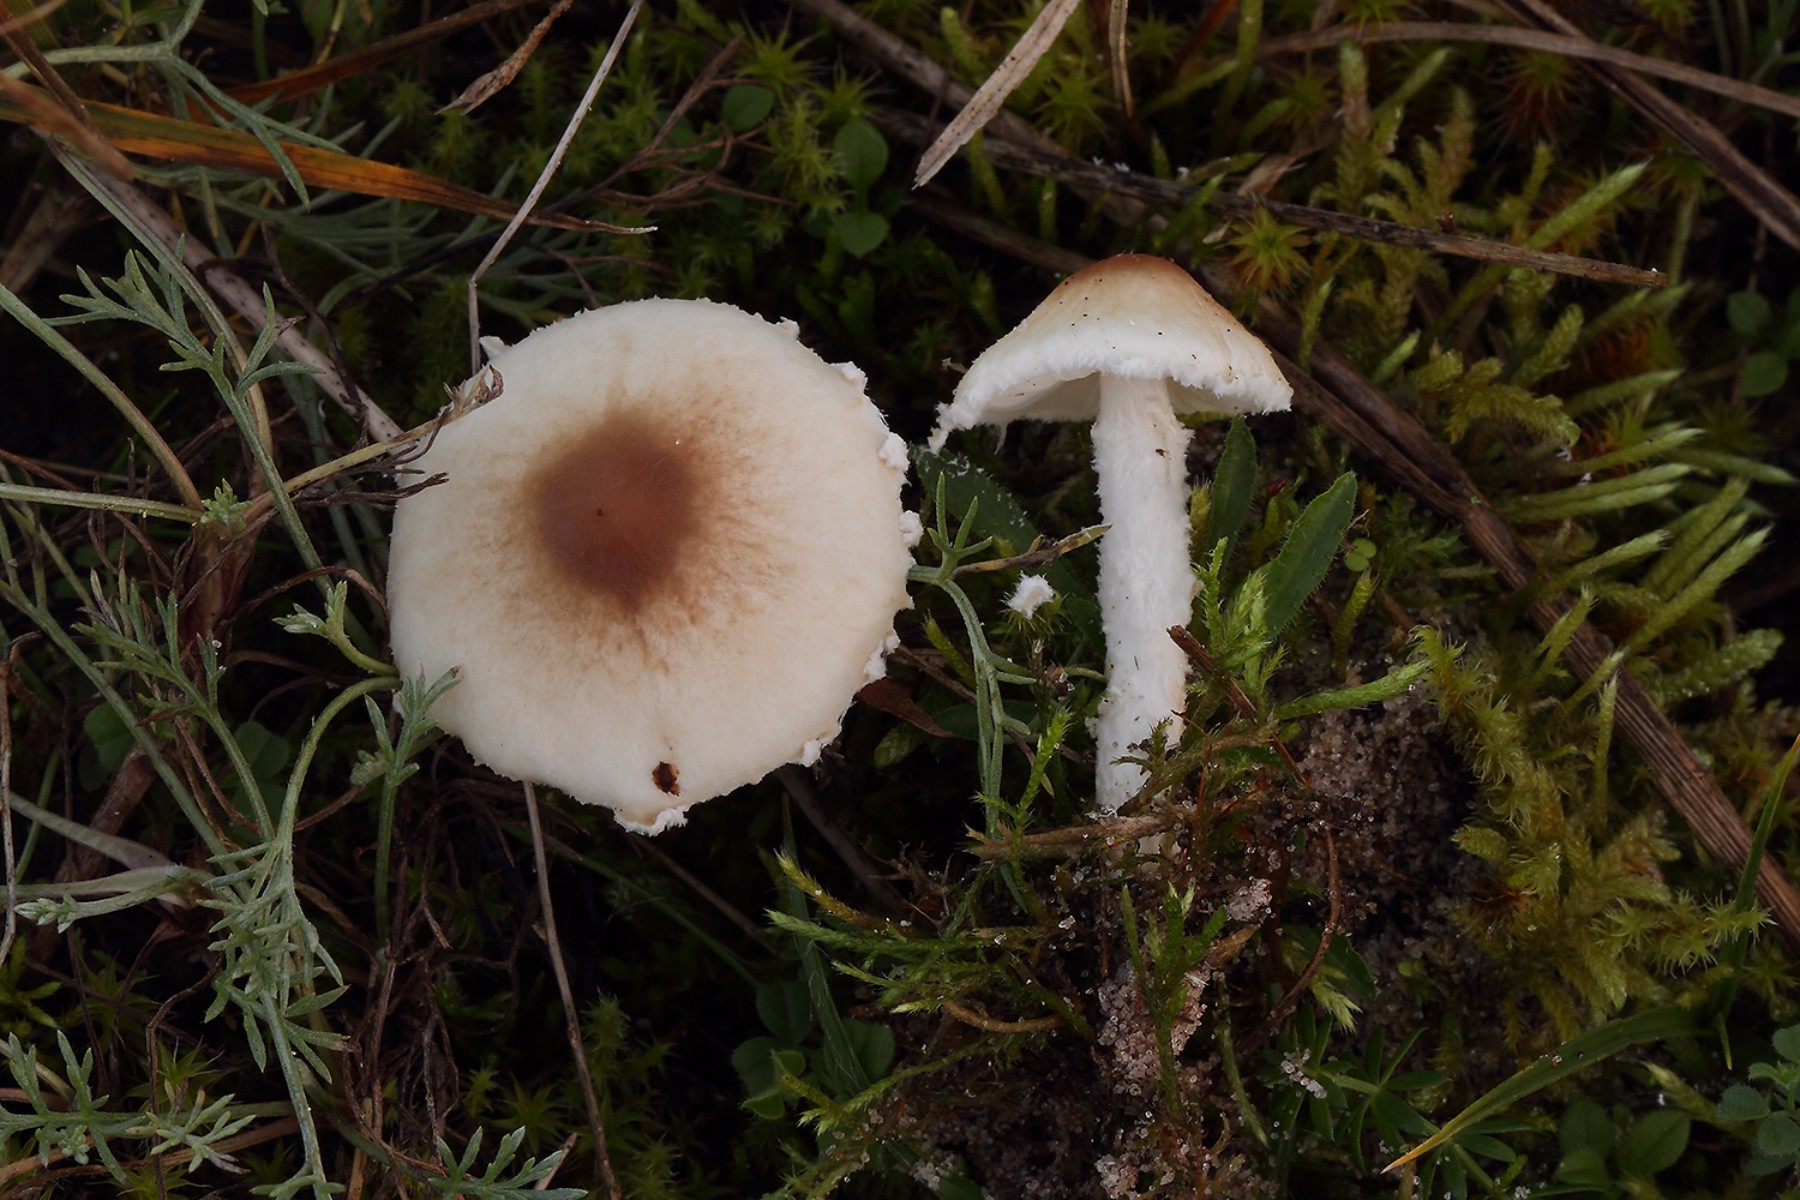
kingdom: Fungi
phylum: Basidiomycota
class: Agaricomycetes
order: Agaricales
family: Agaricaceae
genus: Lepiota
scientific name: Lepiota erminea
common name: hvid parasolhat
